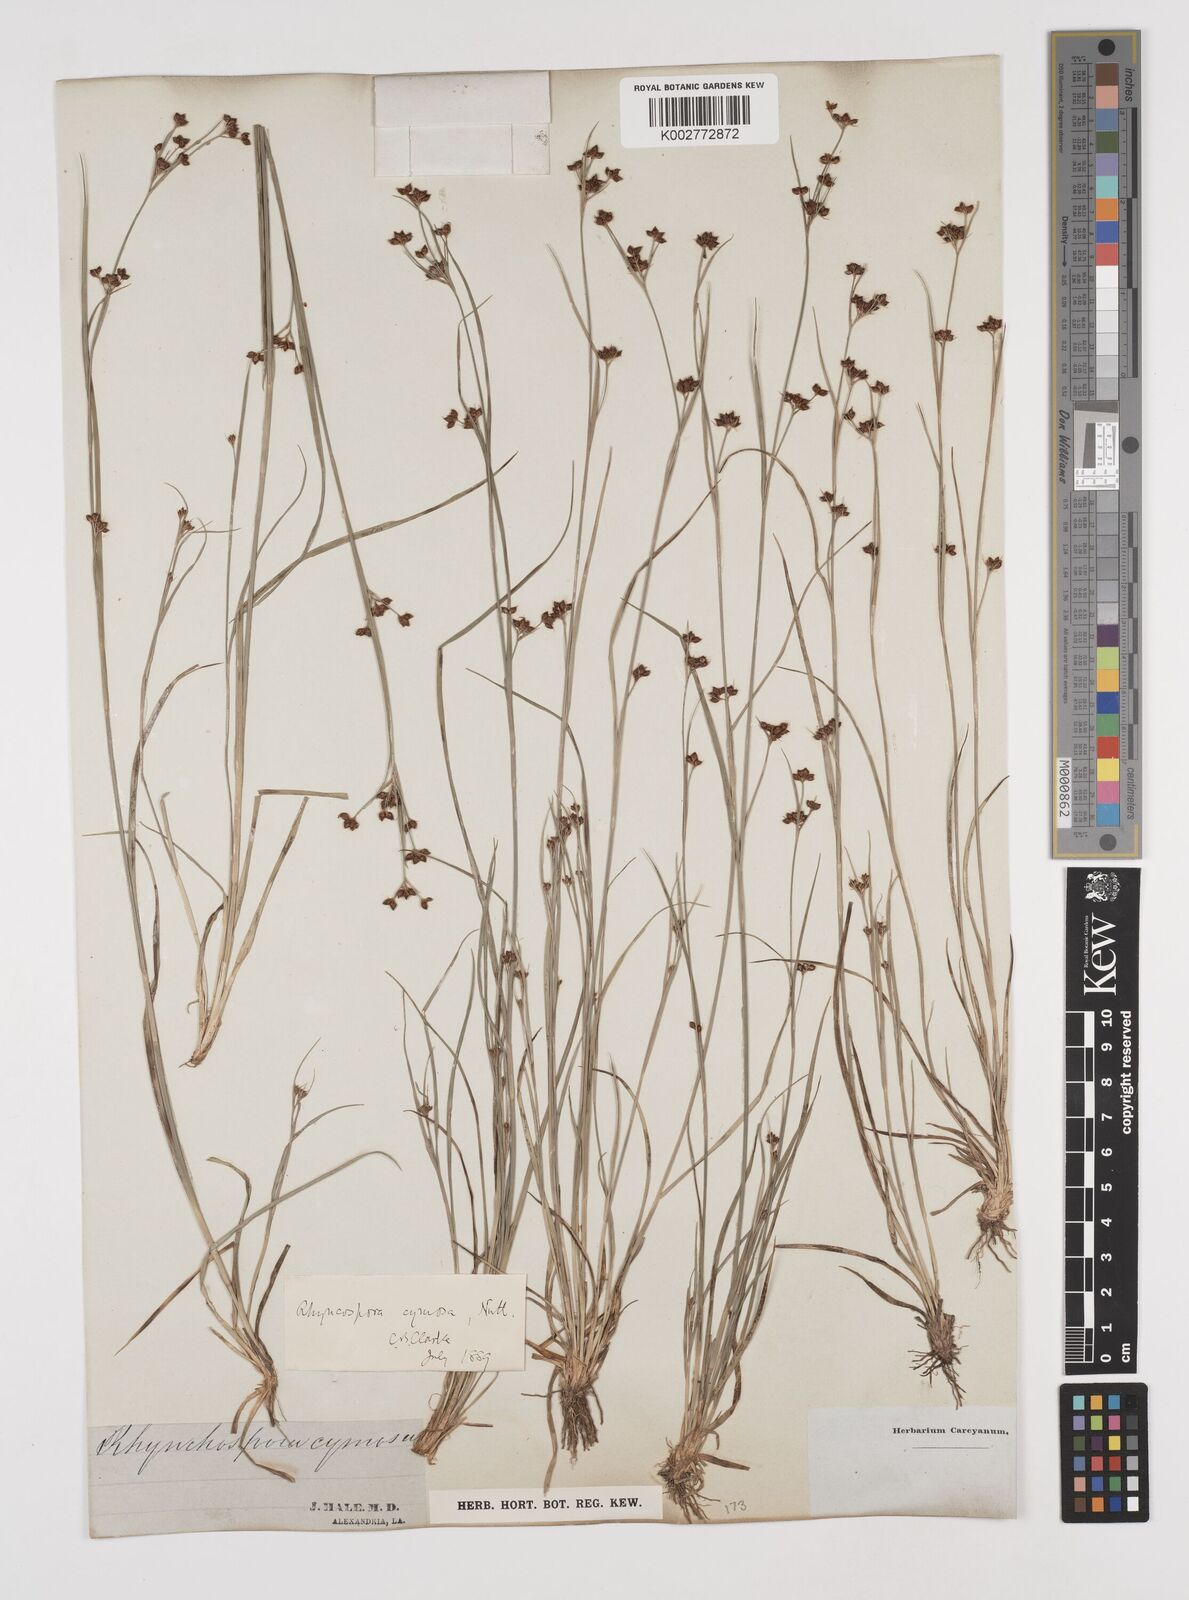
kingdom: Plantae
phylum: Tracheophyta
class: Liliopsida
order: Poales
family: Cyperaceae
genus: Scirpus
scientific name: Scirpus polyphyllus
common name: Leafy bulrush
